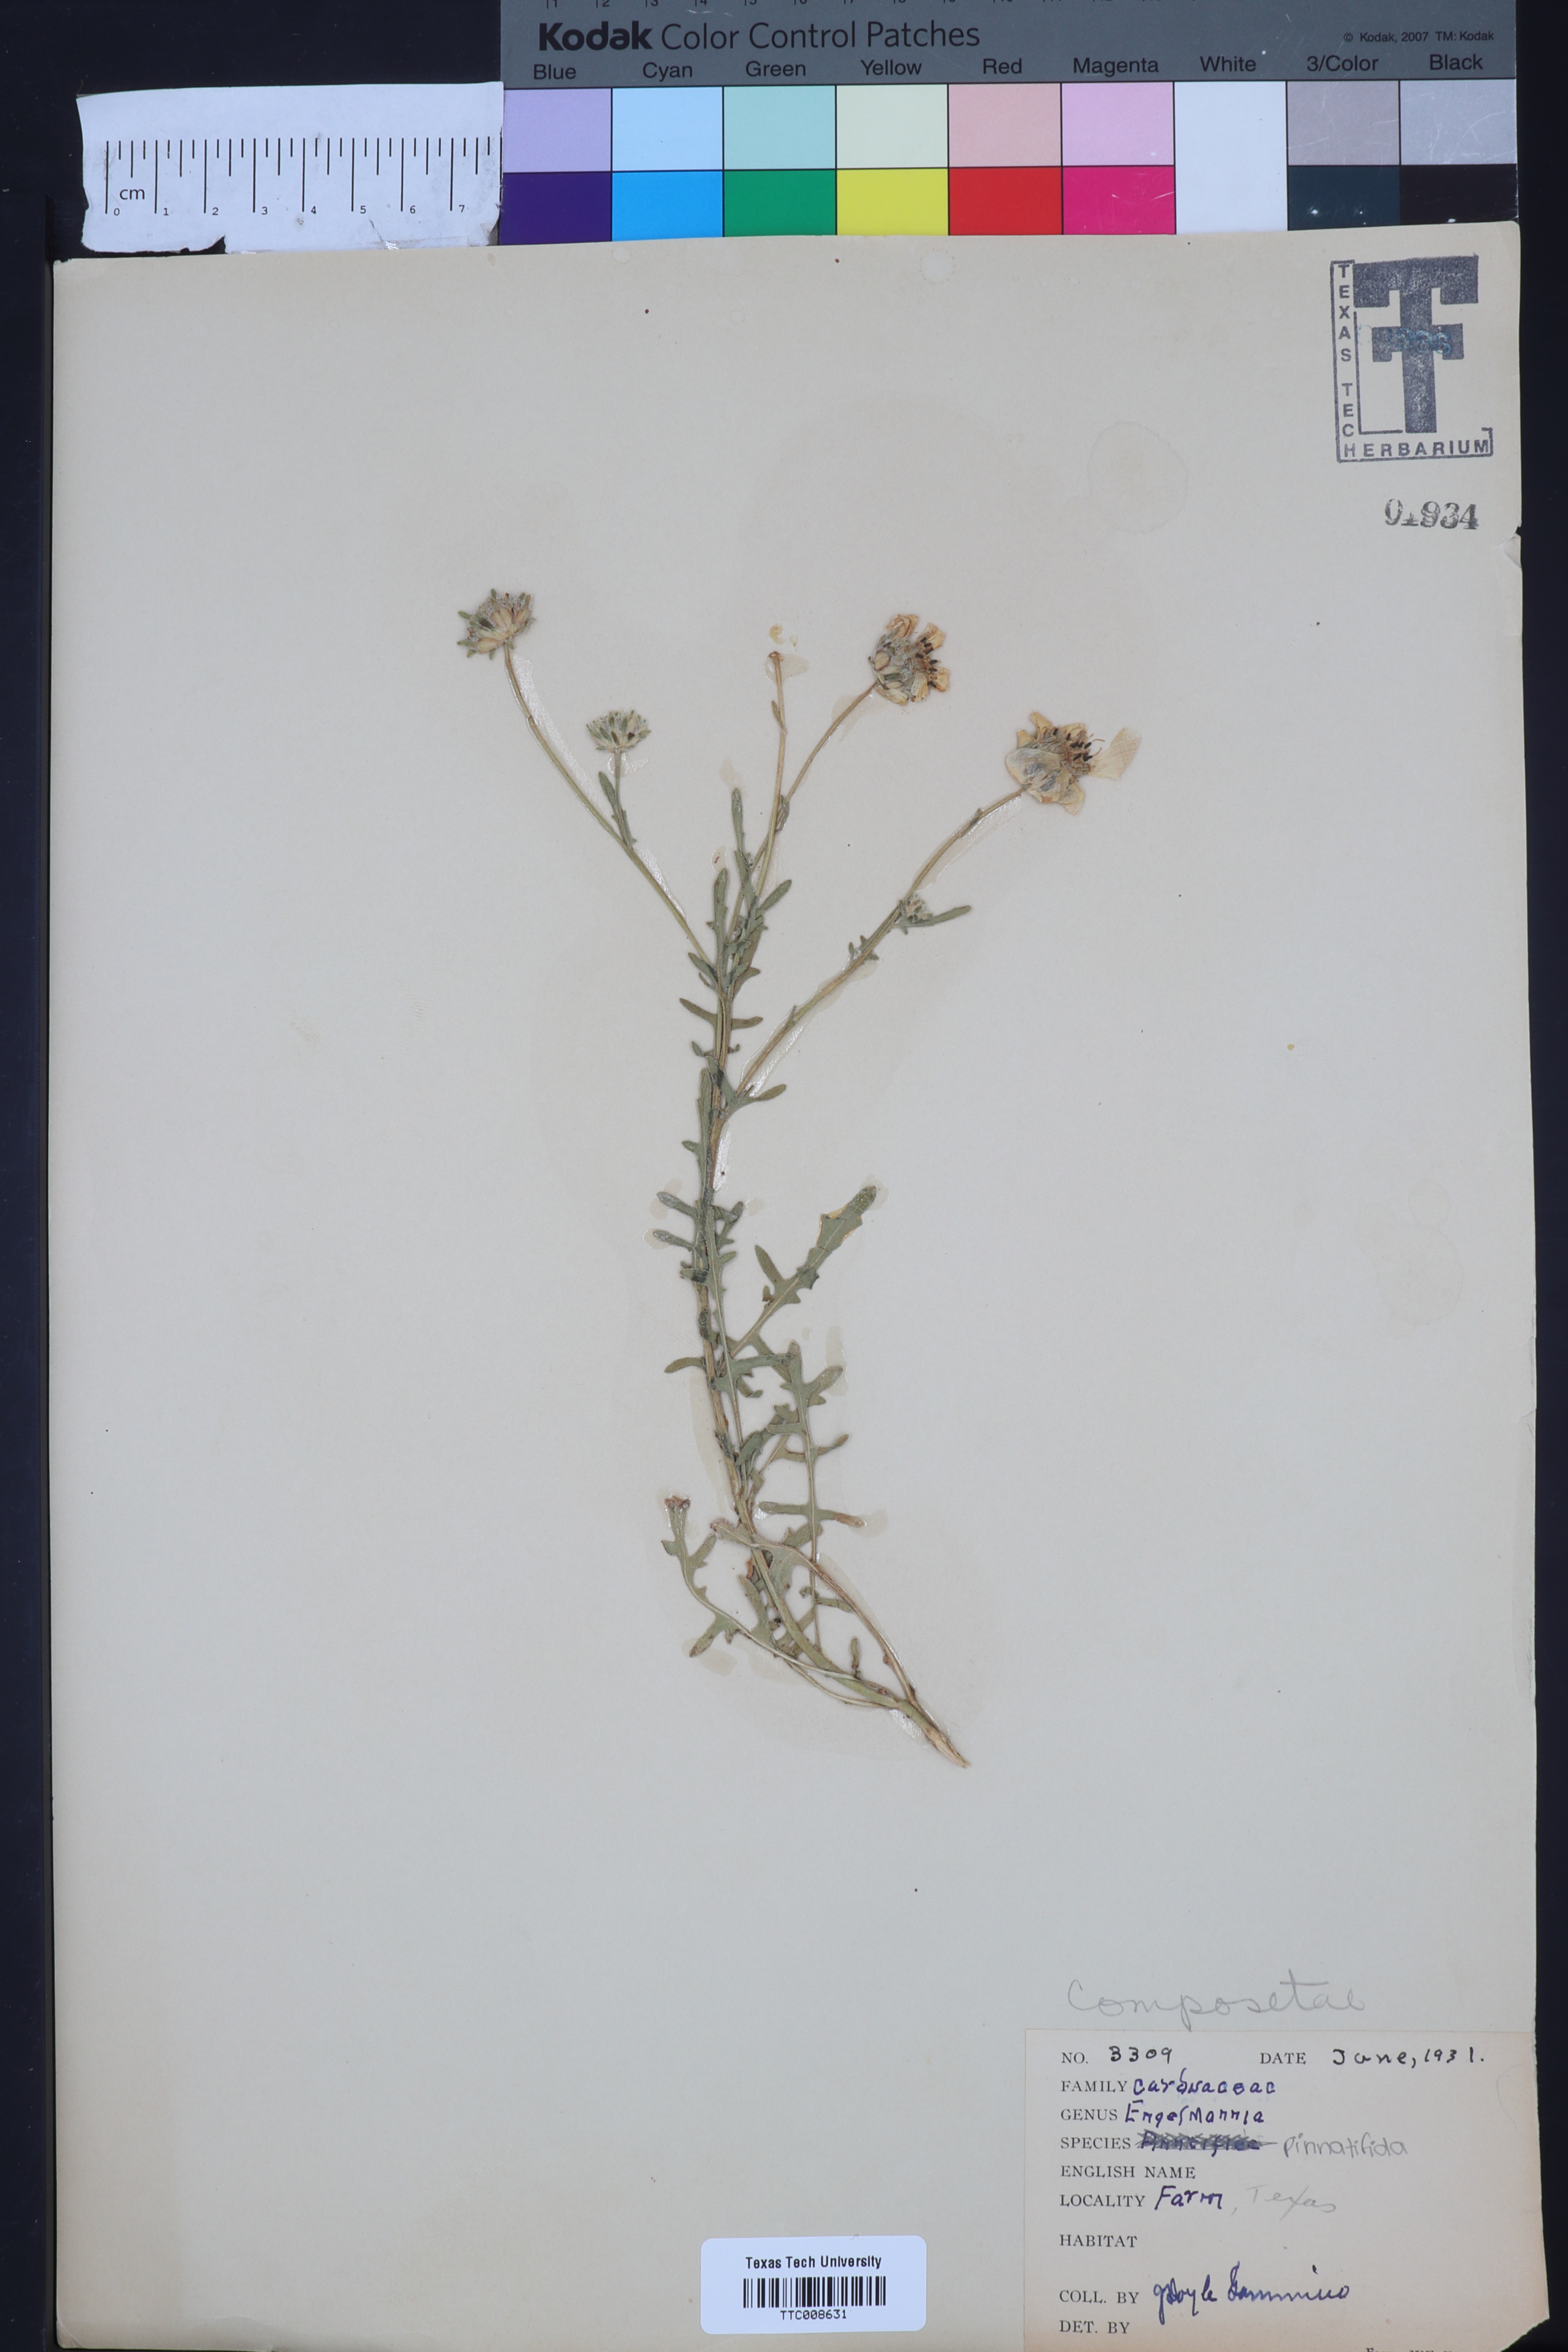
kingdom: Plantae
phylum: Tracheophyta
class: Magnoliopsida
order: Asterales
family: Asteraceae
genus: Engelmannia
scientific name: Engelmannia peristenia
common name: Engelmann's daisy
